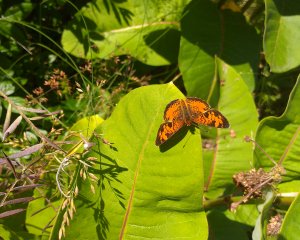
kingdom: Animalia
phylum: Arthropoda
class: Insecta
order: Lepidoptera
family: Nymphalidae
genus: Phyciodes
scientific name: Phyciodes tharos
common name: Northern Crescent
